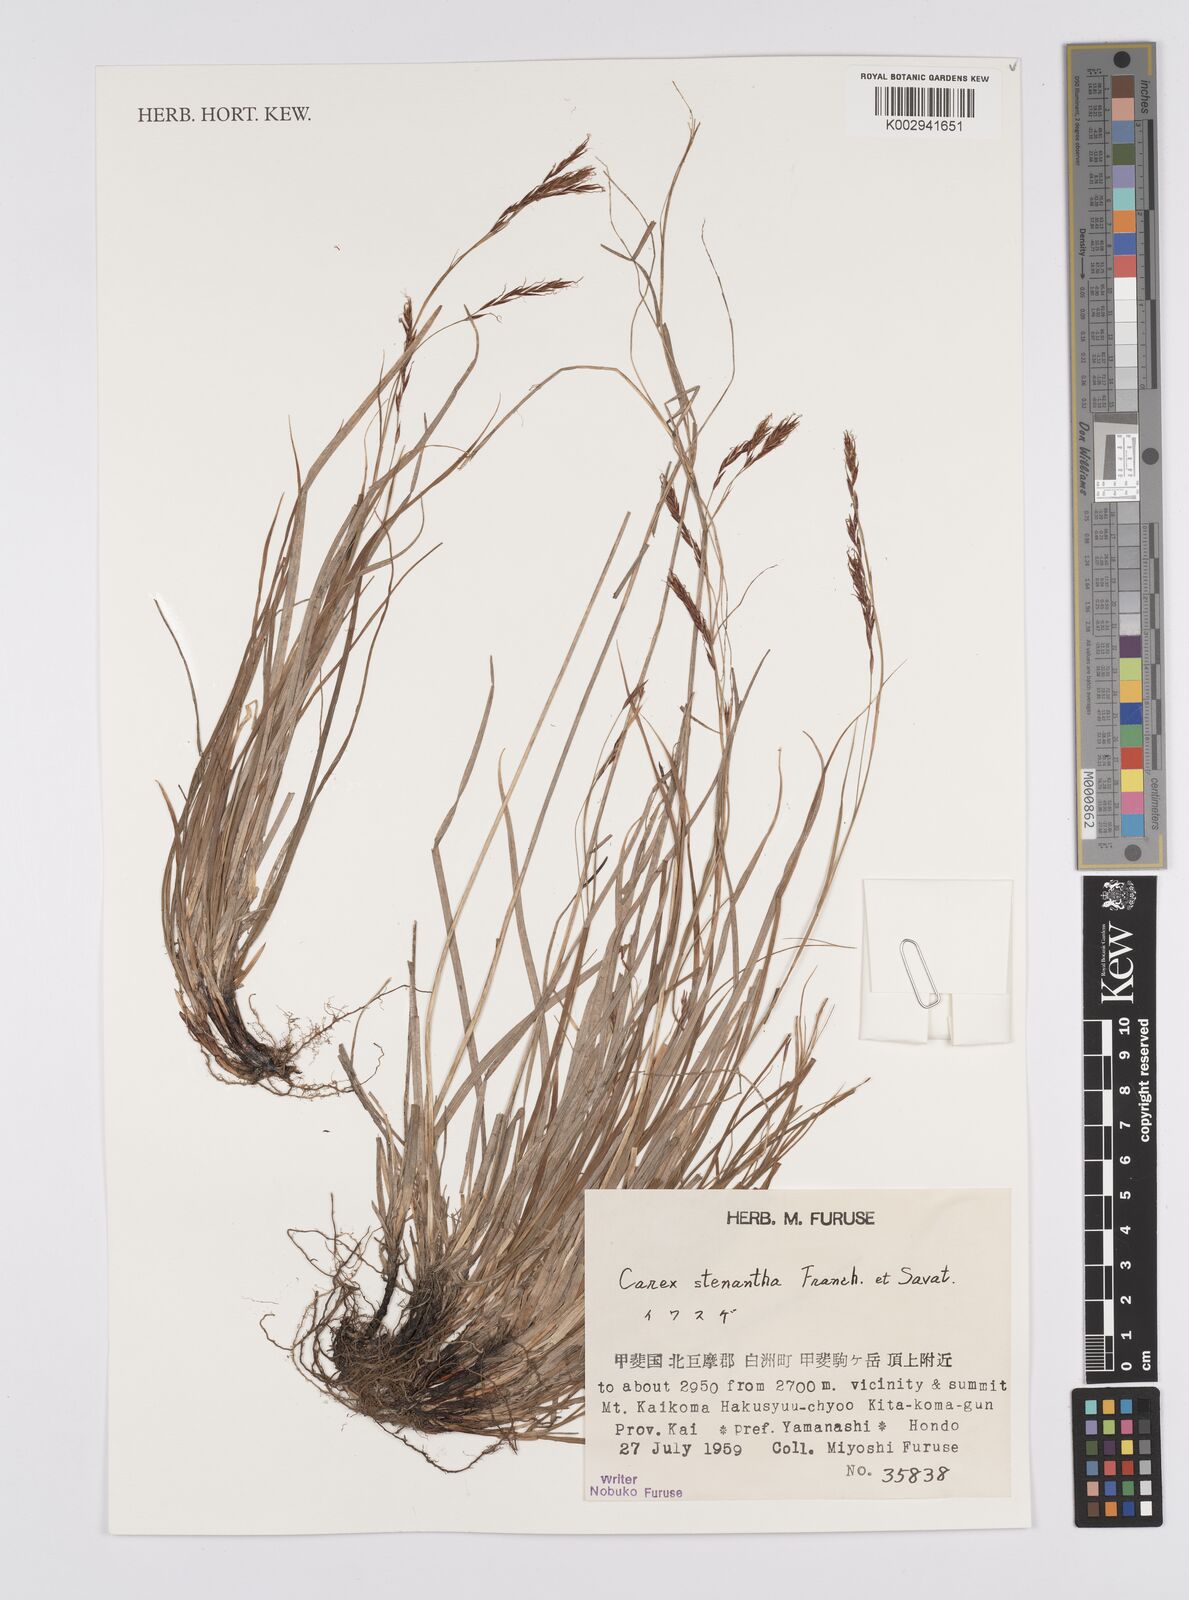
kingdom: Plantae
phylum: Tracheophyta
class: Liliopsida
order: Poales
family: Cyperaceae
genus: Carex
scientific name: Carex stenantha
